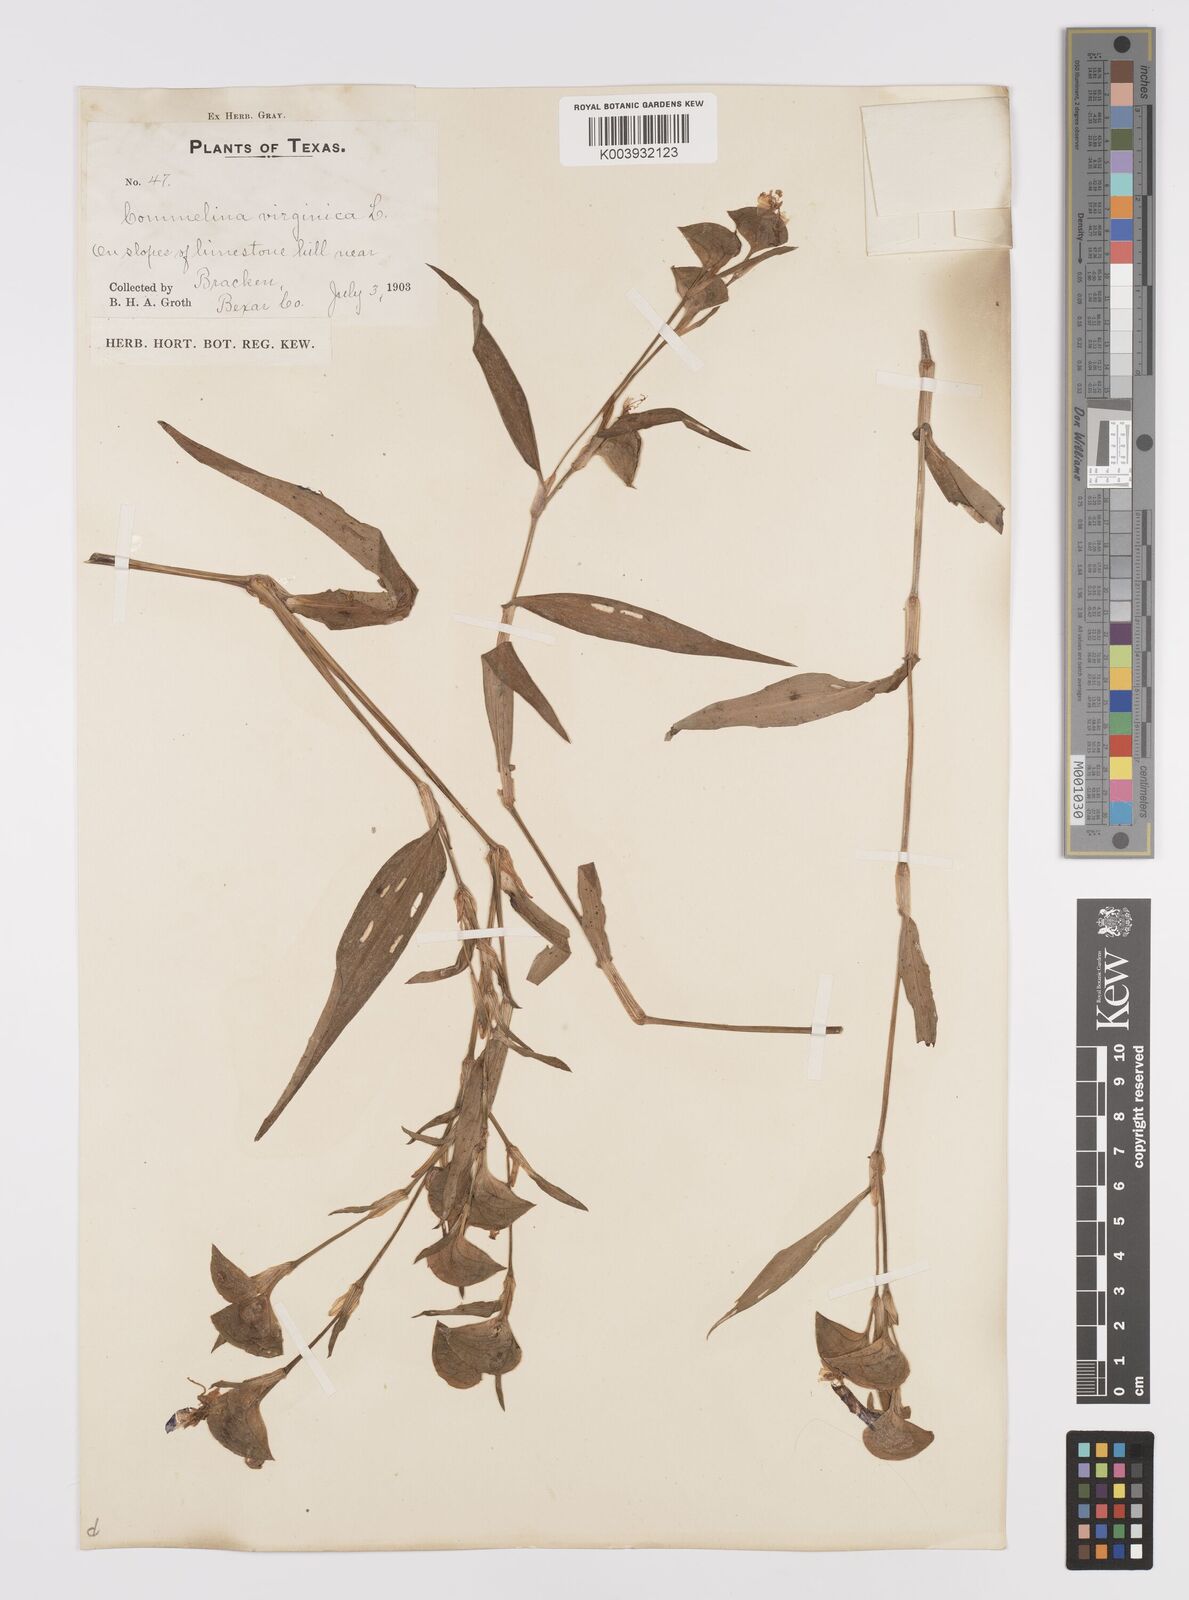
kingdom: Plantae
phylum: Tracheophyta
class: Liliopsida
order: Commelinales
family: Commelinaceae
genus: Commelina
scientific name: Commelina erecta
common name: Blousel blommetjie
